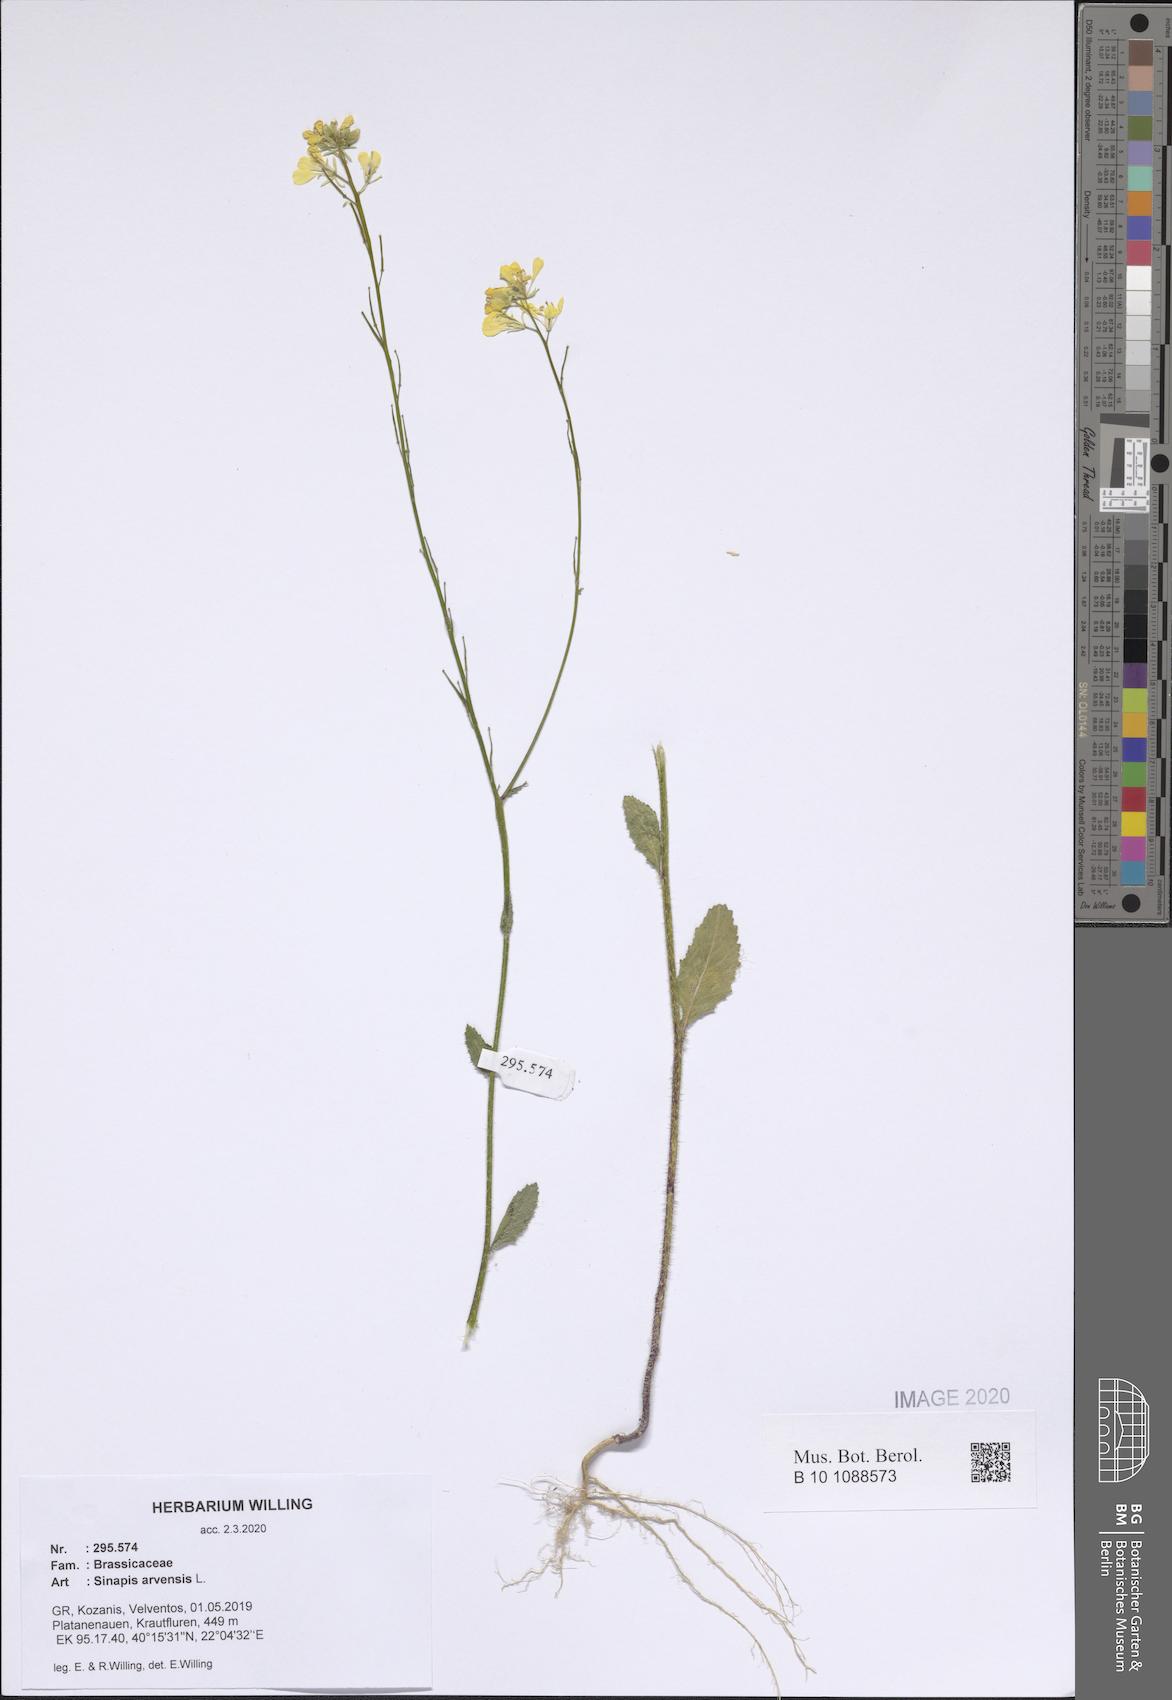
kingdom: Plantae
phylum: Tracheophyta
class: Magnoliopsida
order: Brassicales
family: Brassicaceae
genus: Sinapis
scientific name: Sinapis arvensis
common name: Charlock
